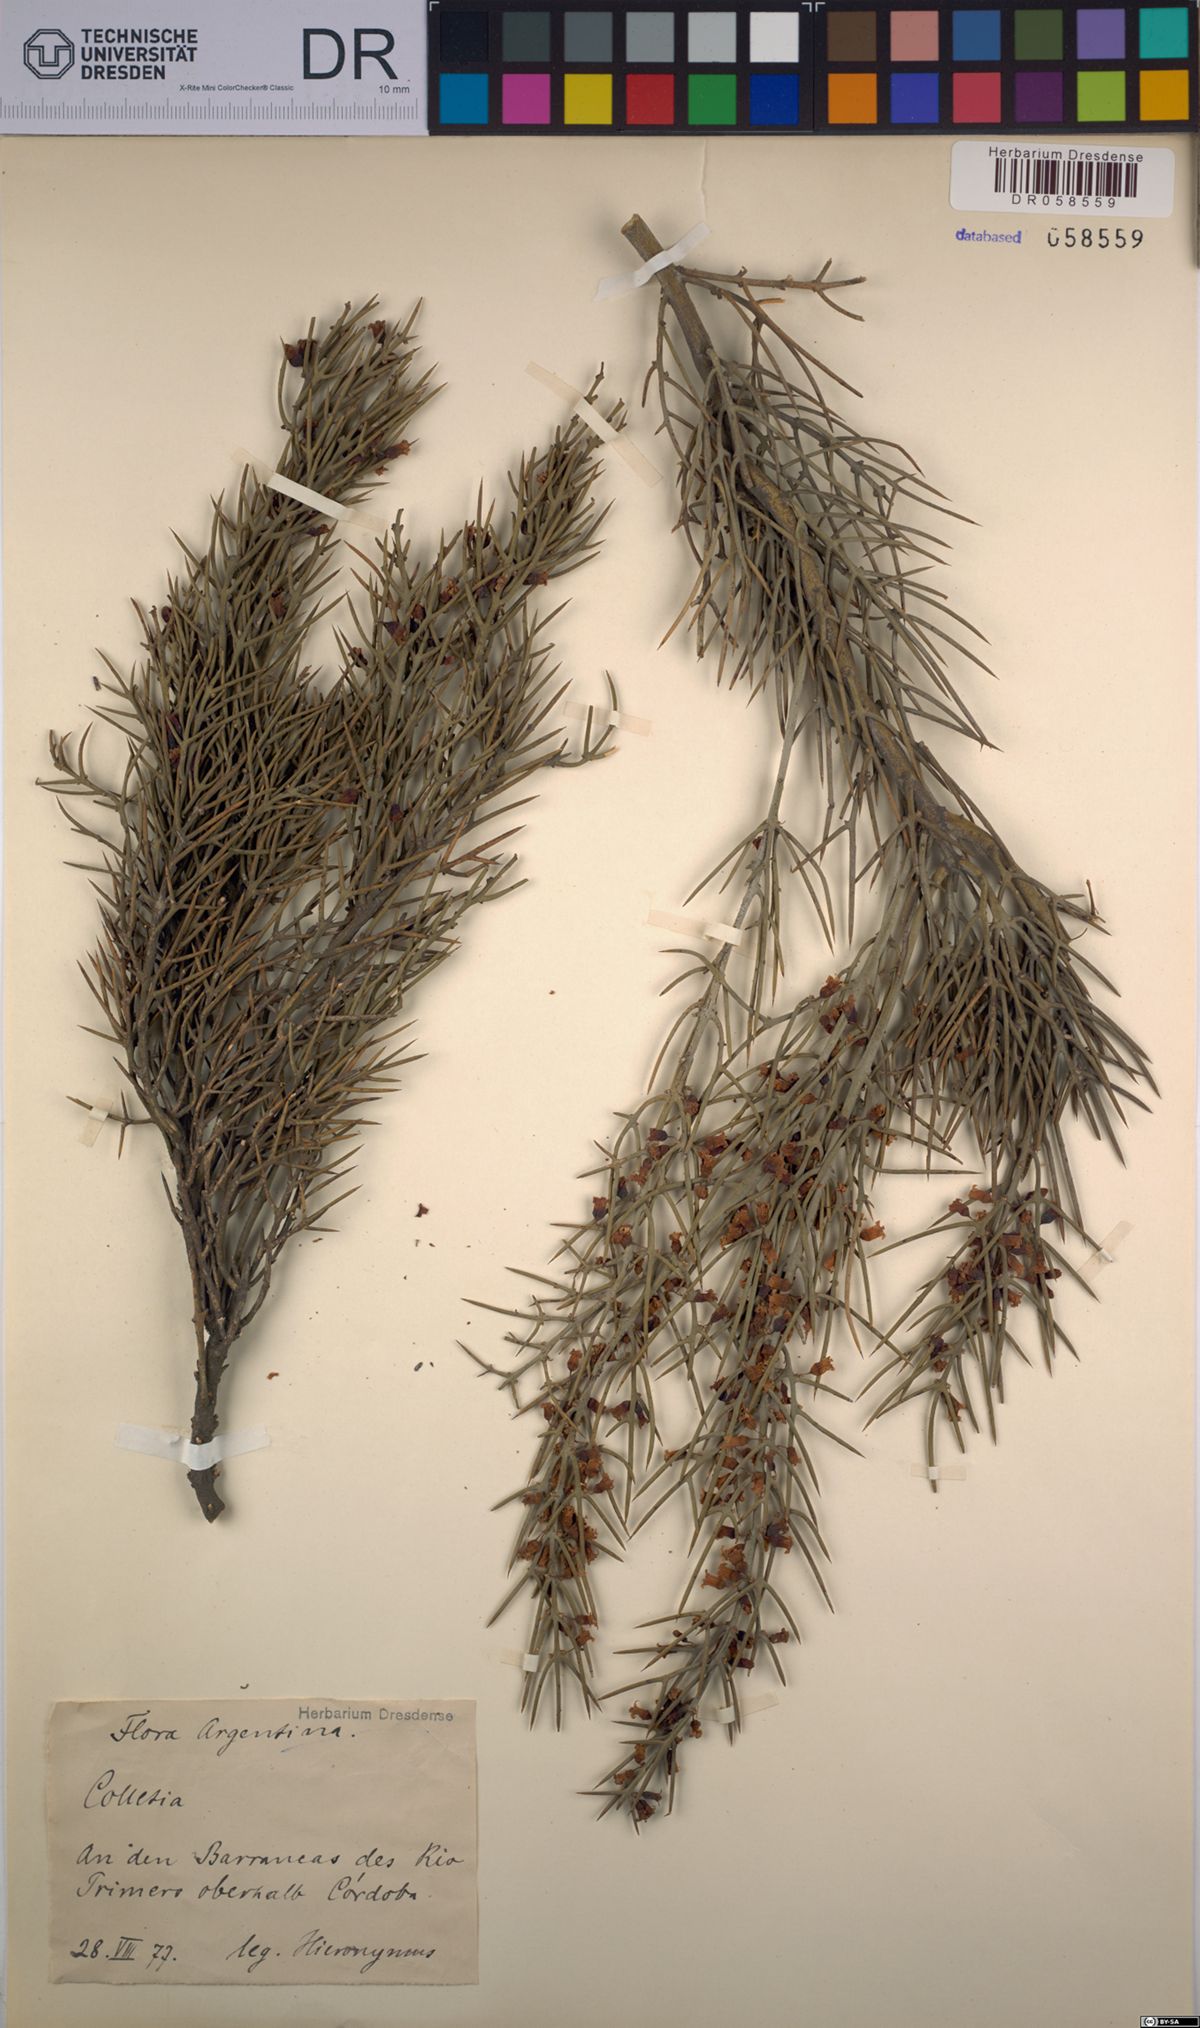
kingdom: Plantae
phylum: Tracheophyta
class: Magnoliopsida
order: Rosales
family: Rhamnaceae
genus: Colletia
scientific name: Colletia spinosissima
